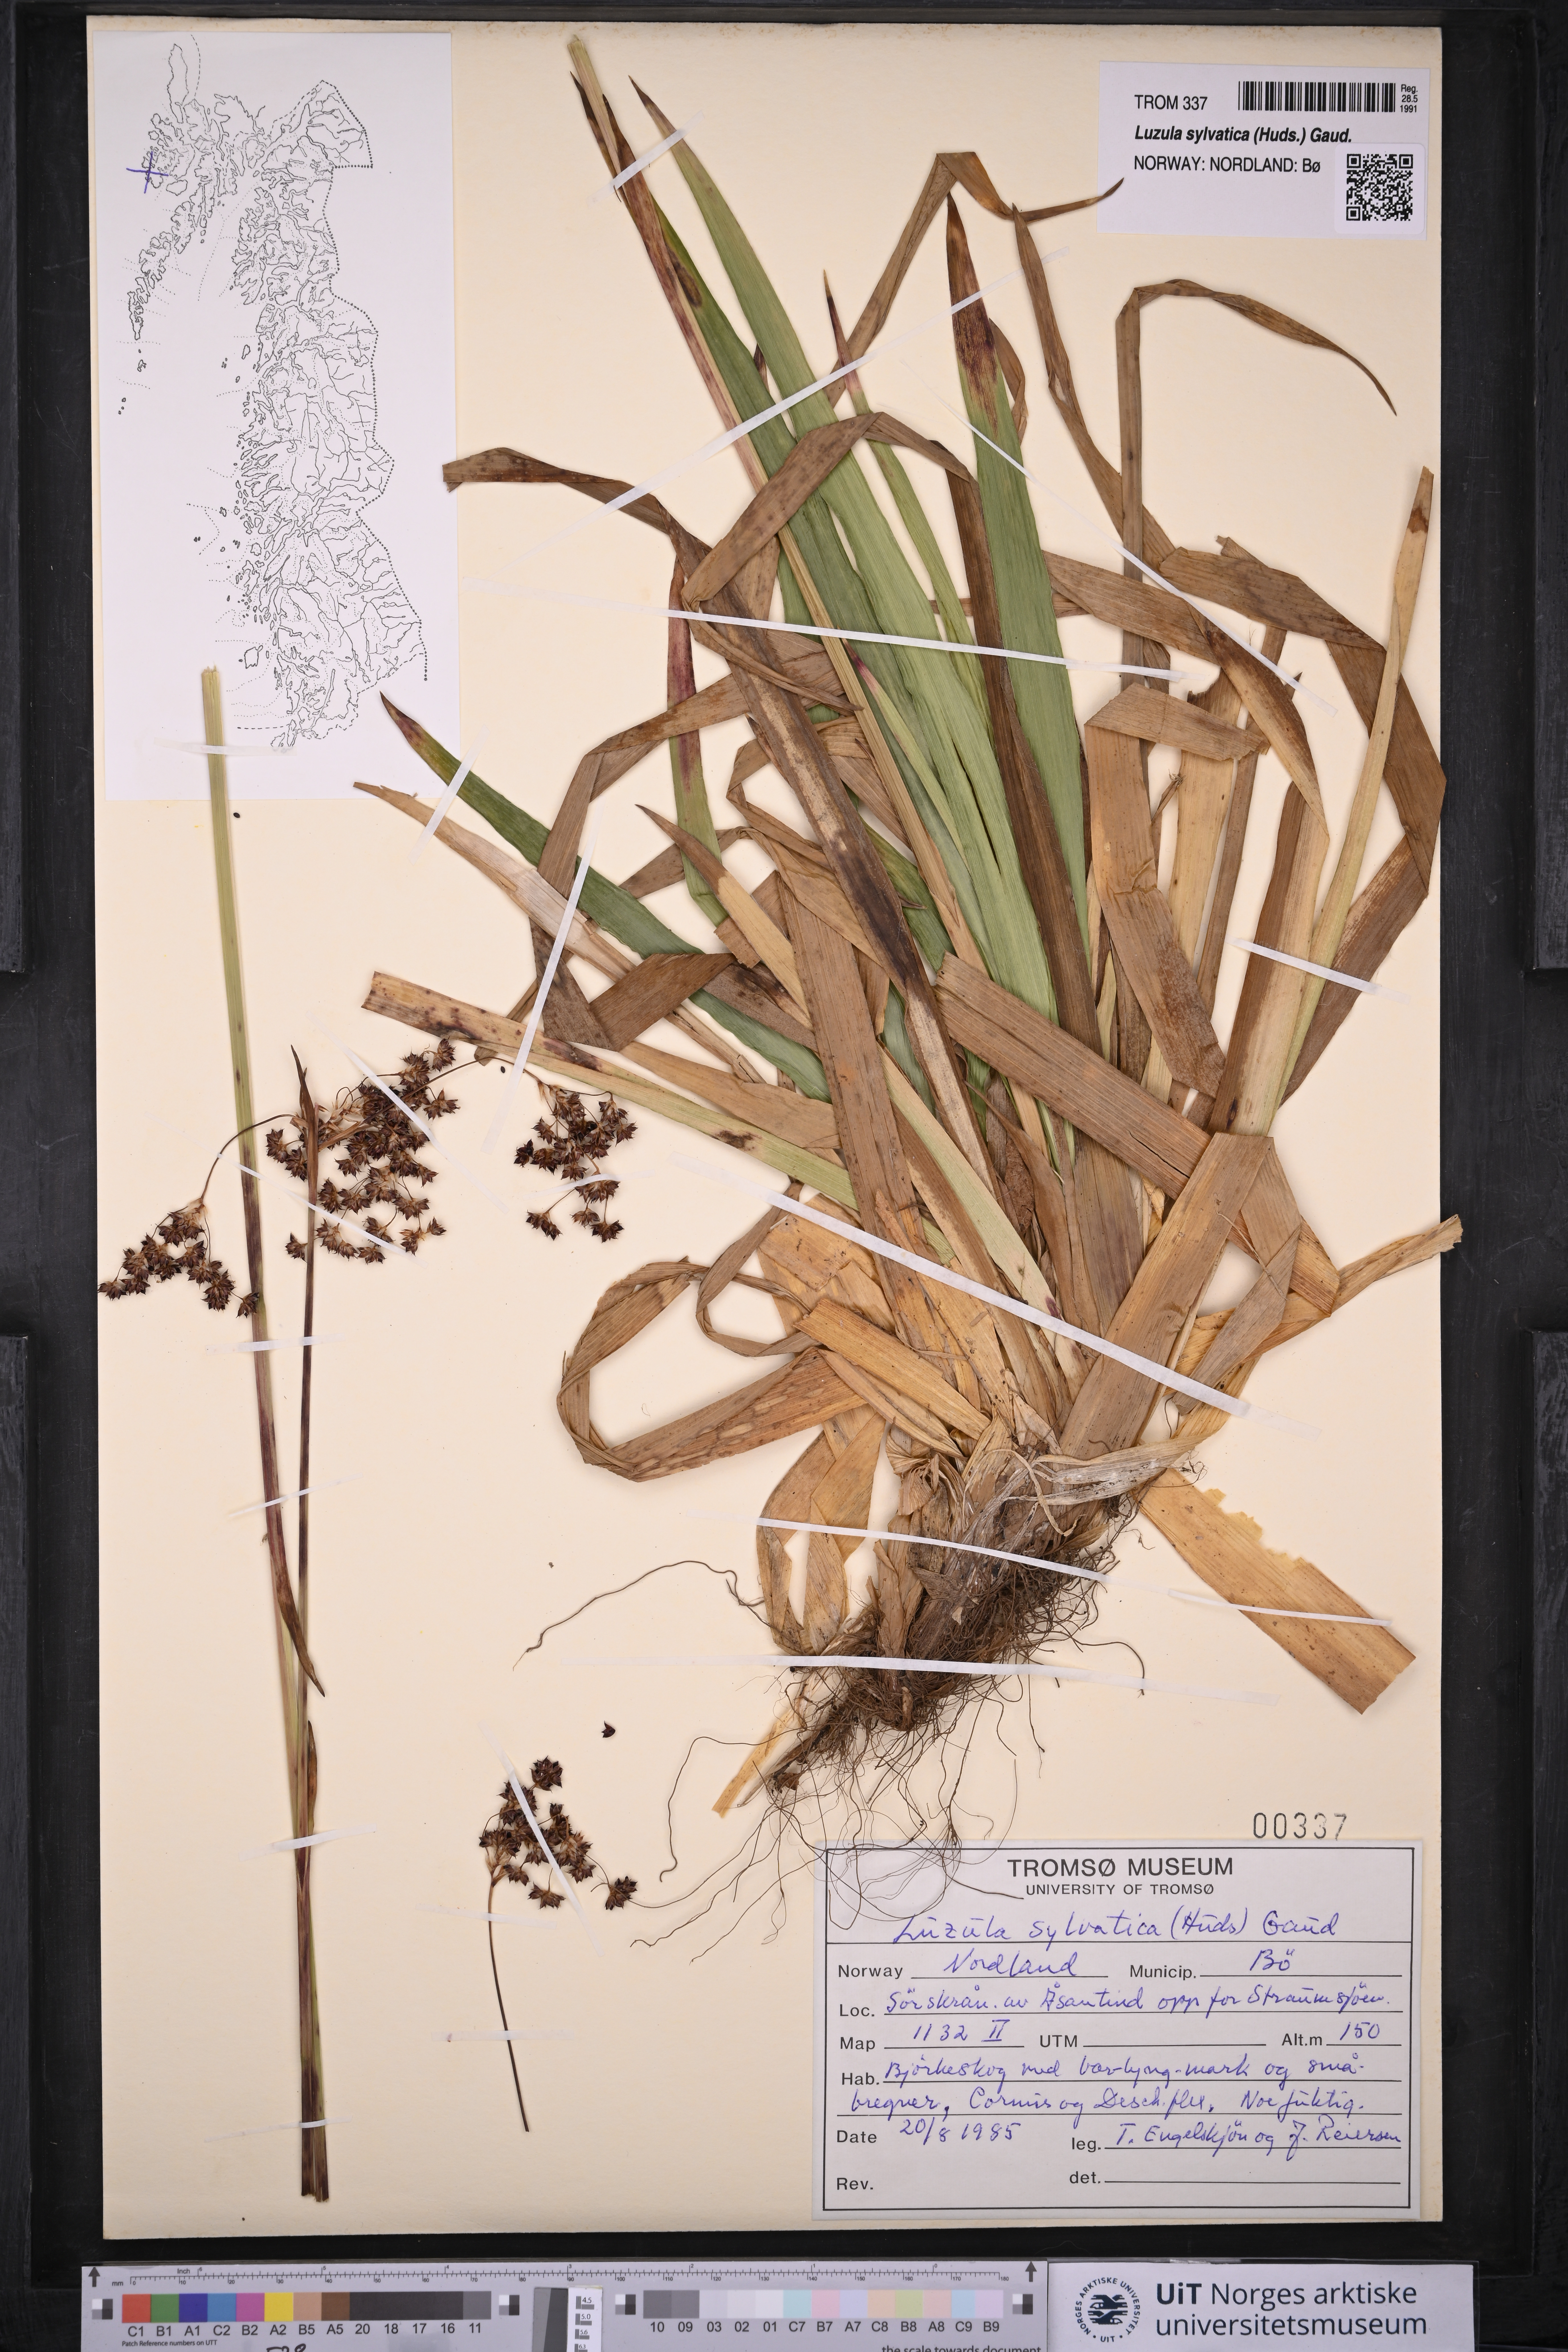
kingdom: Plantae
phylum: Tracheophyta
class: Liliopsida
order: Poales
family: Juncaceae
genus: Luzula
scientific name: Luzula sylvatica
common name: Great wood-rush
